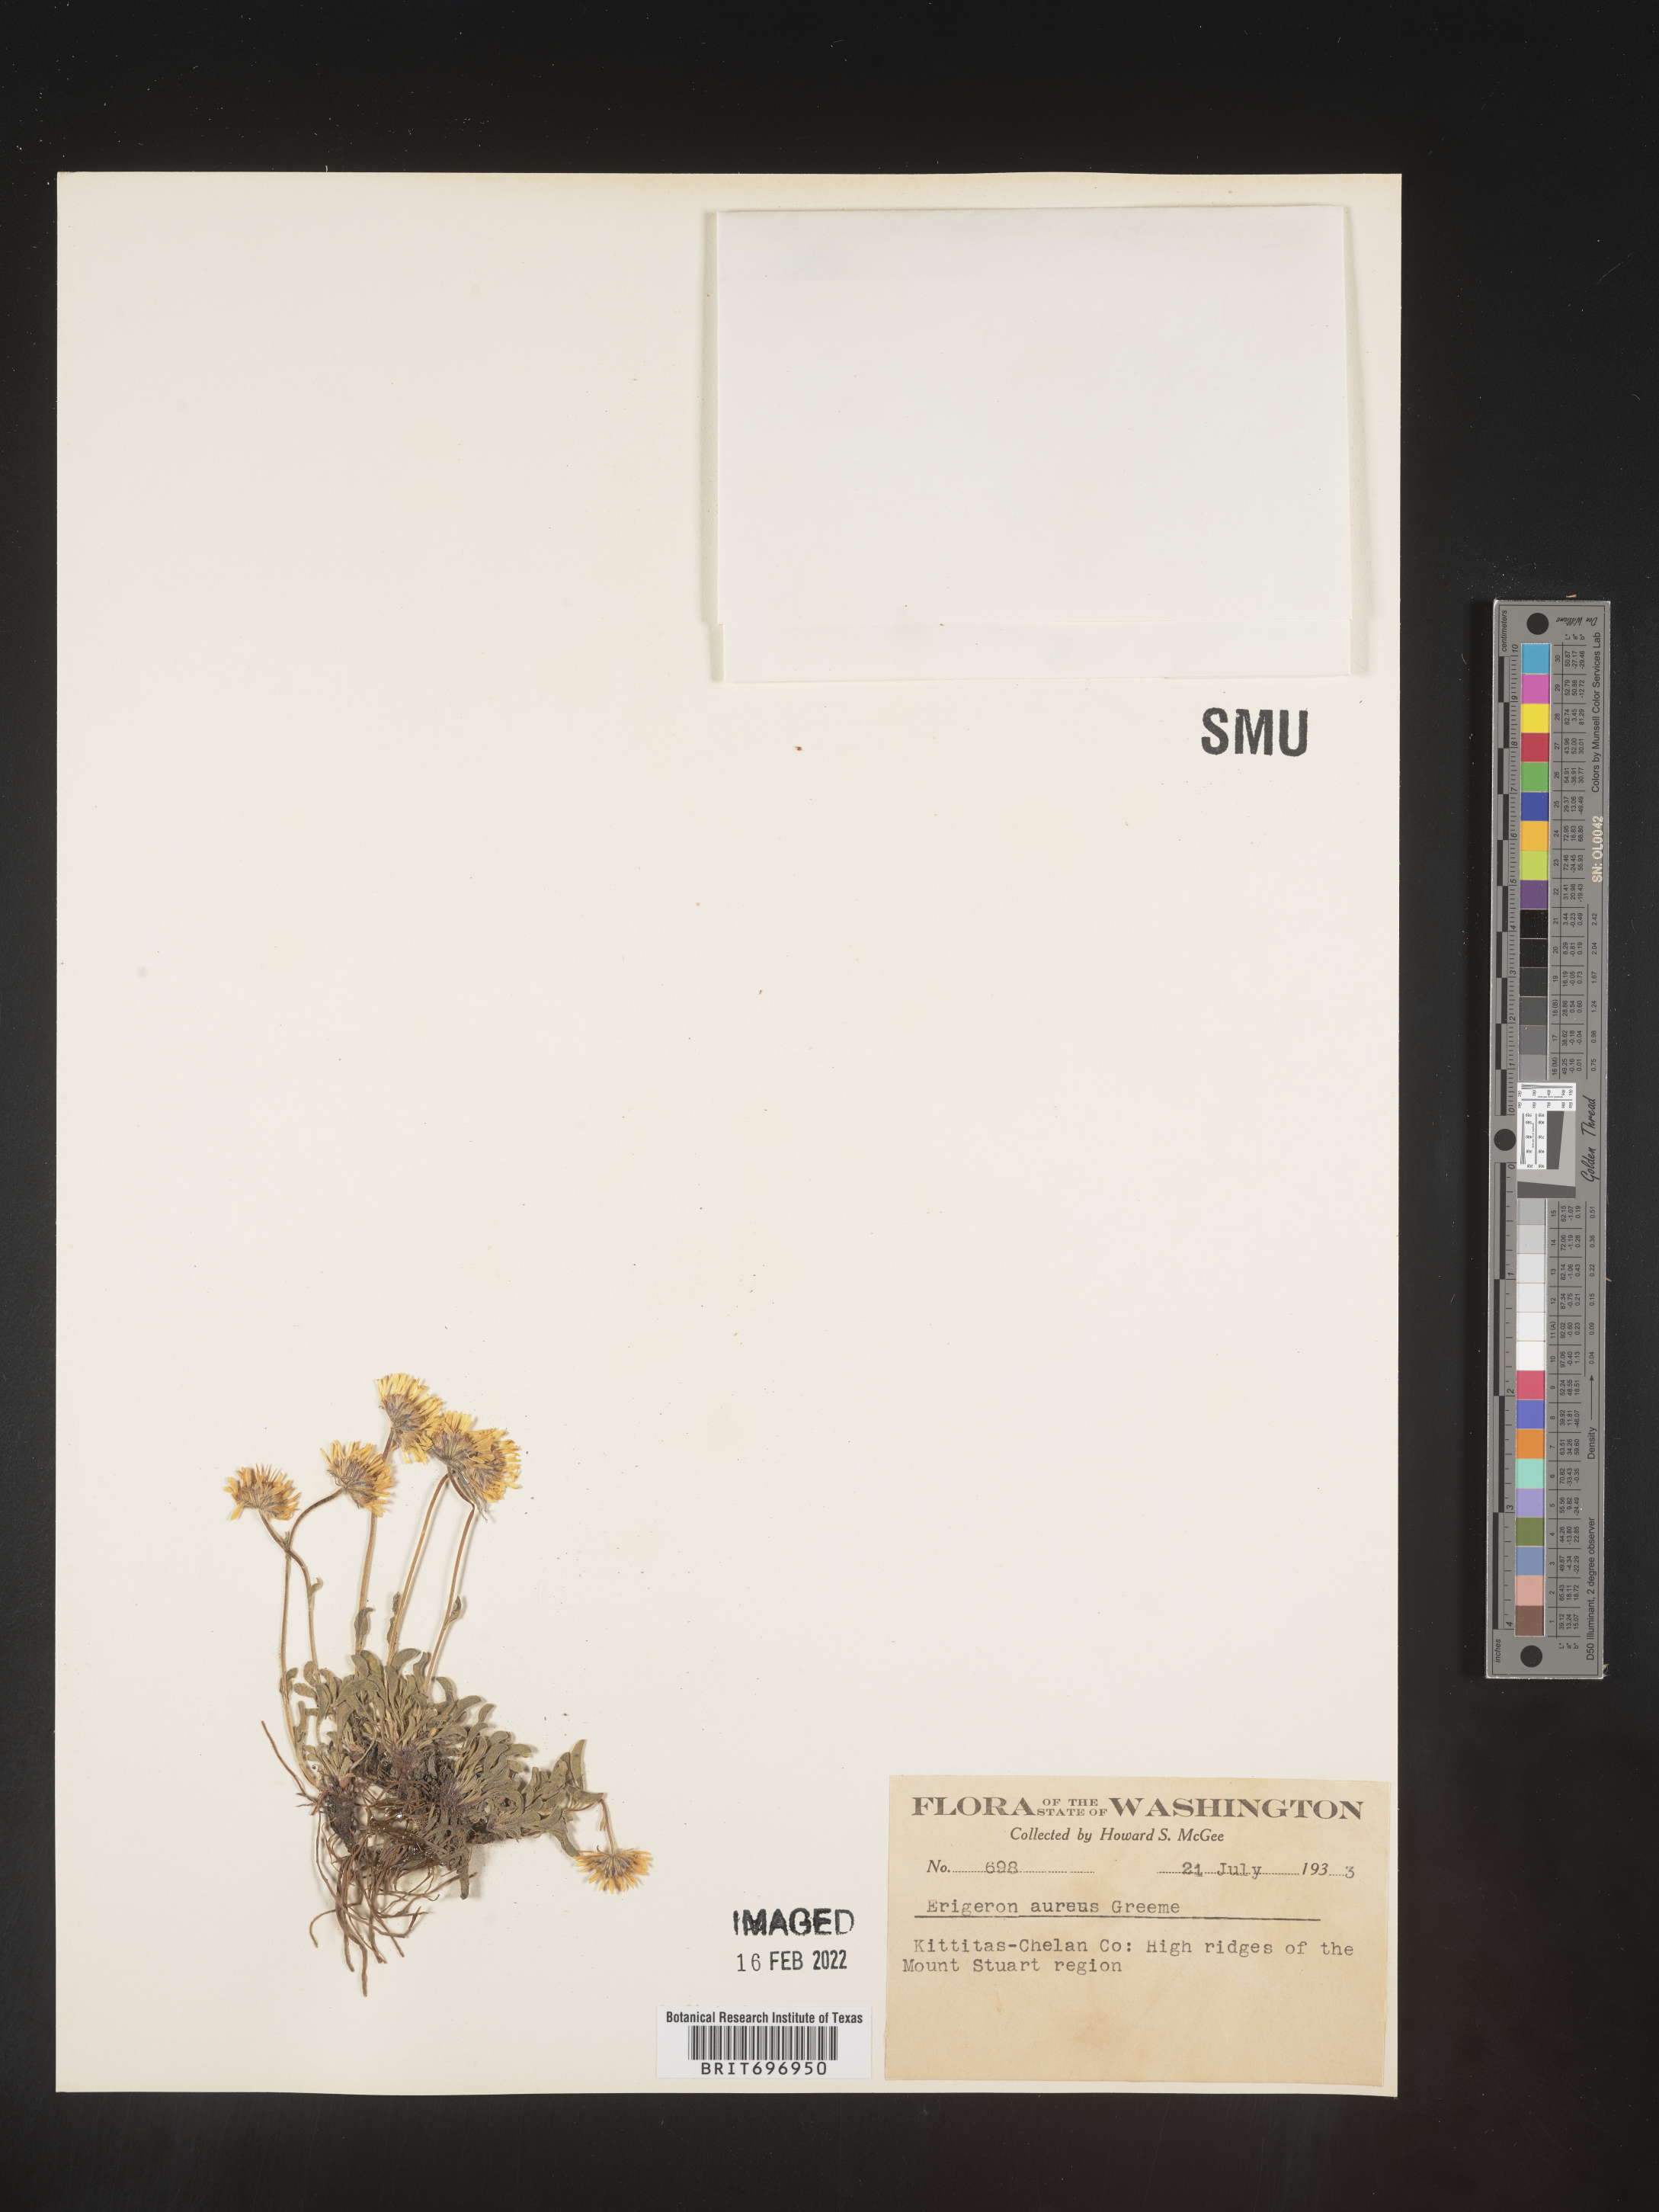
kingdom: Plantae
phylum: Tracheophyta
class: Magnoliopsida
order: Asterales
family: Asteraceae
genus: Erigeron
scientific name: Erigeron aureus
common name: Alpine yellow fleabane
